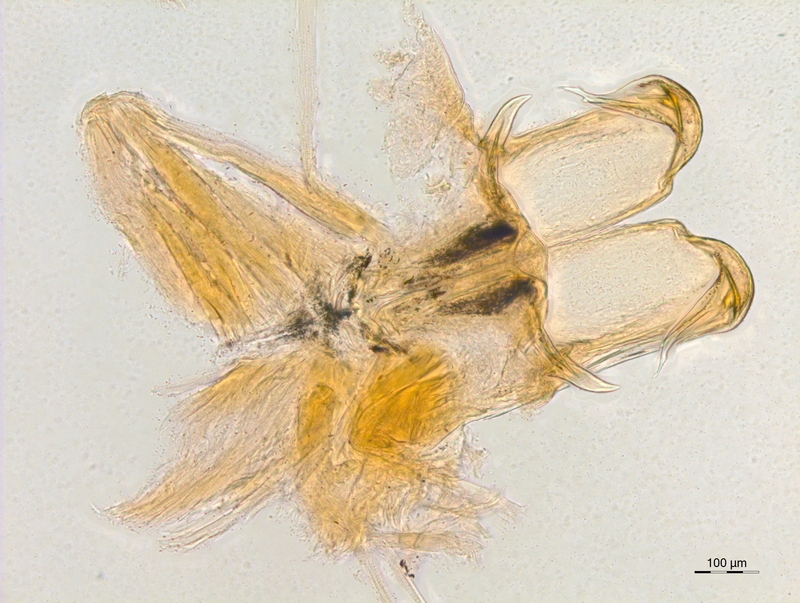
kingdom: Animalia
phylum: Arthropoda
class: Diplopoda
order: Chordeumatida
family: Craspedosomatidae
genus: Atractosoma
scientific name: Atractosoma
